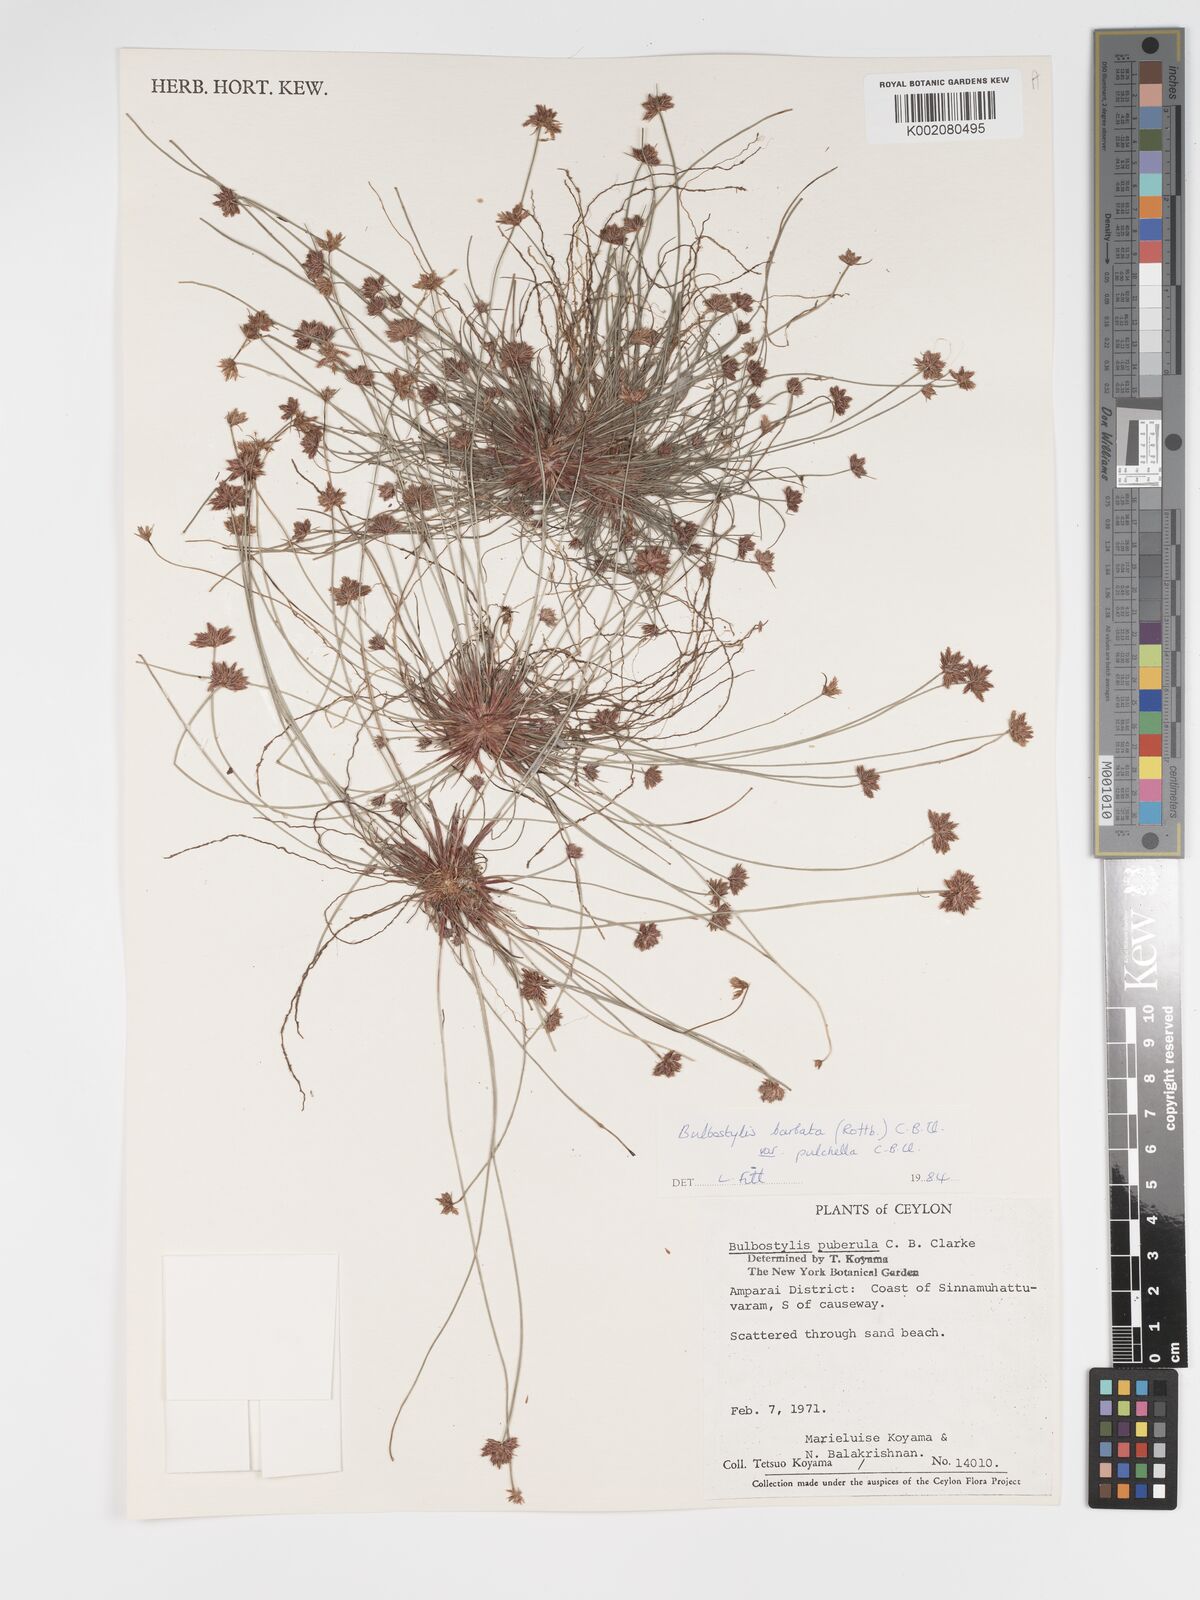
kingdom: Plantae
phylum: Tracheophyta
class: Liliopsida
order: Poales
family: Cyperaceae
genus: Bulbostylis
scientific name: Bulbostylis barbata
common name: Watergrass
